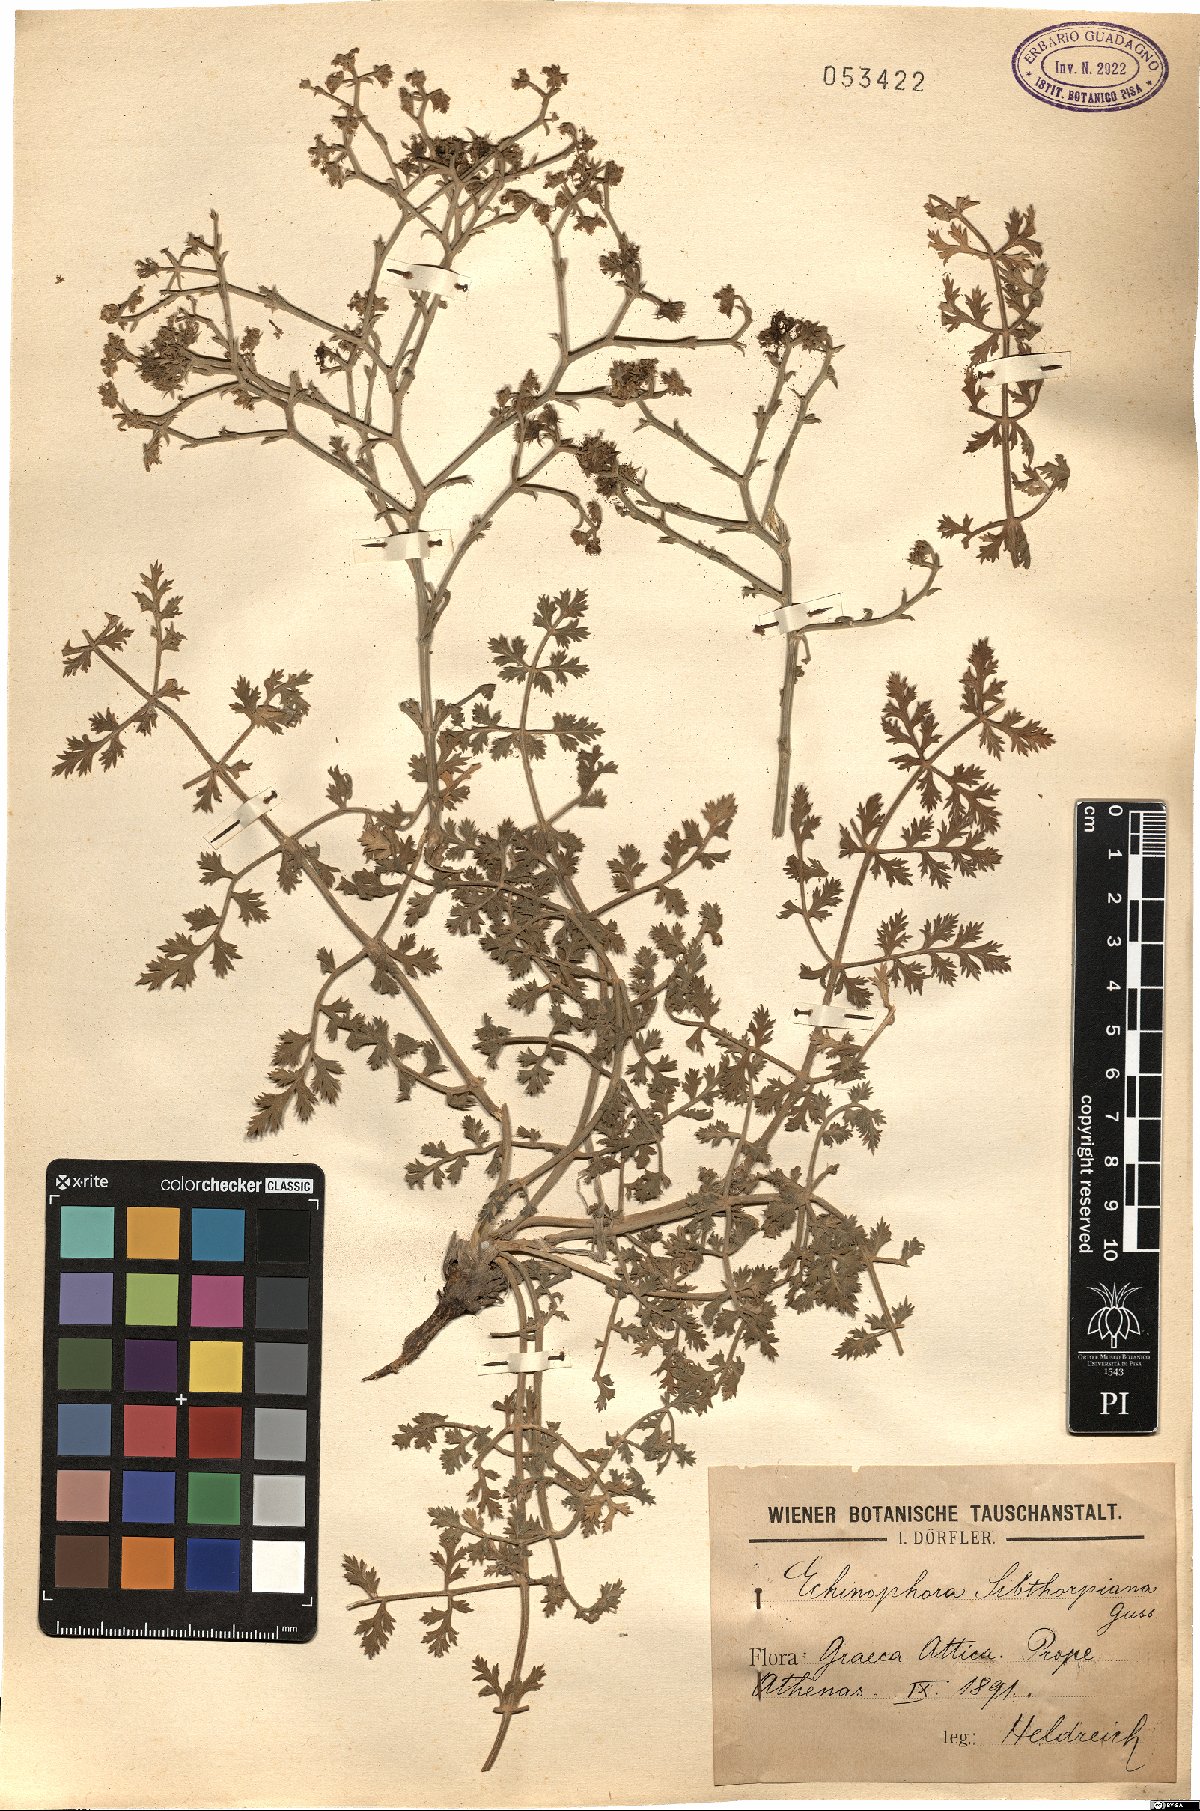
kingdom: Plantae
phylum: Tracheophyta
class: Magnoliopsida
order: Apiales
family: Apiaceae
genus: Echinophora
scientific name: Echinophora sibthorpiana
